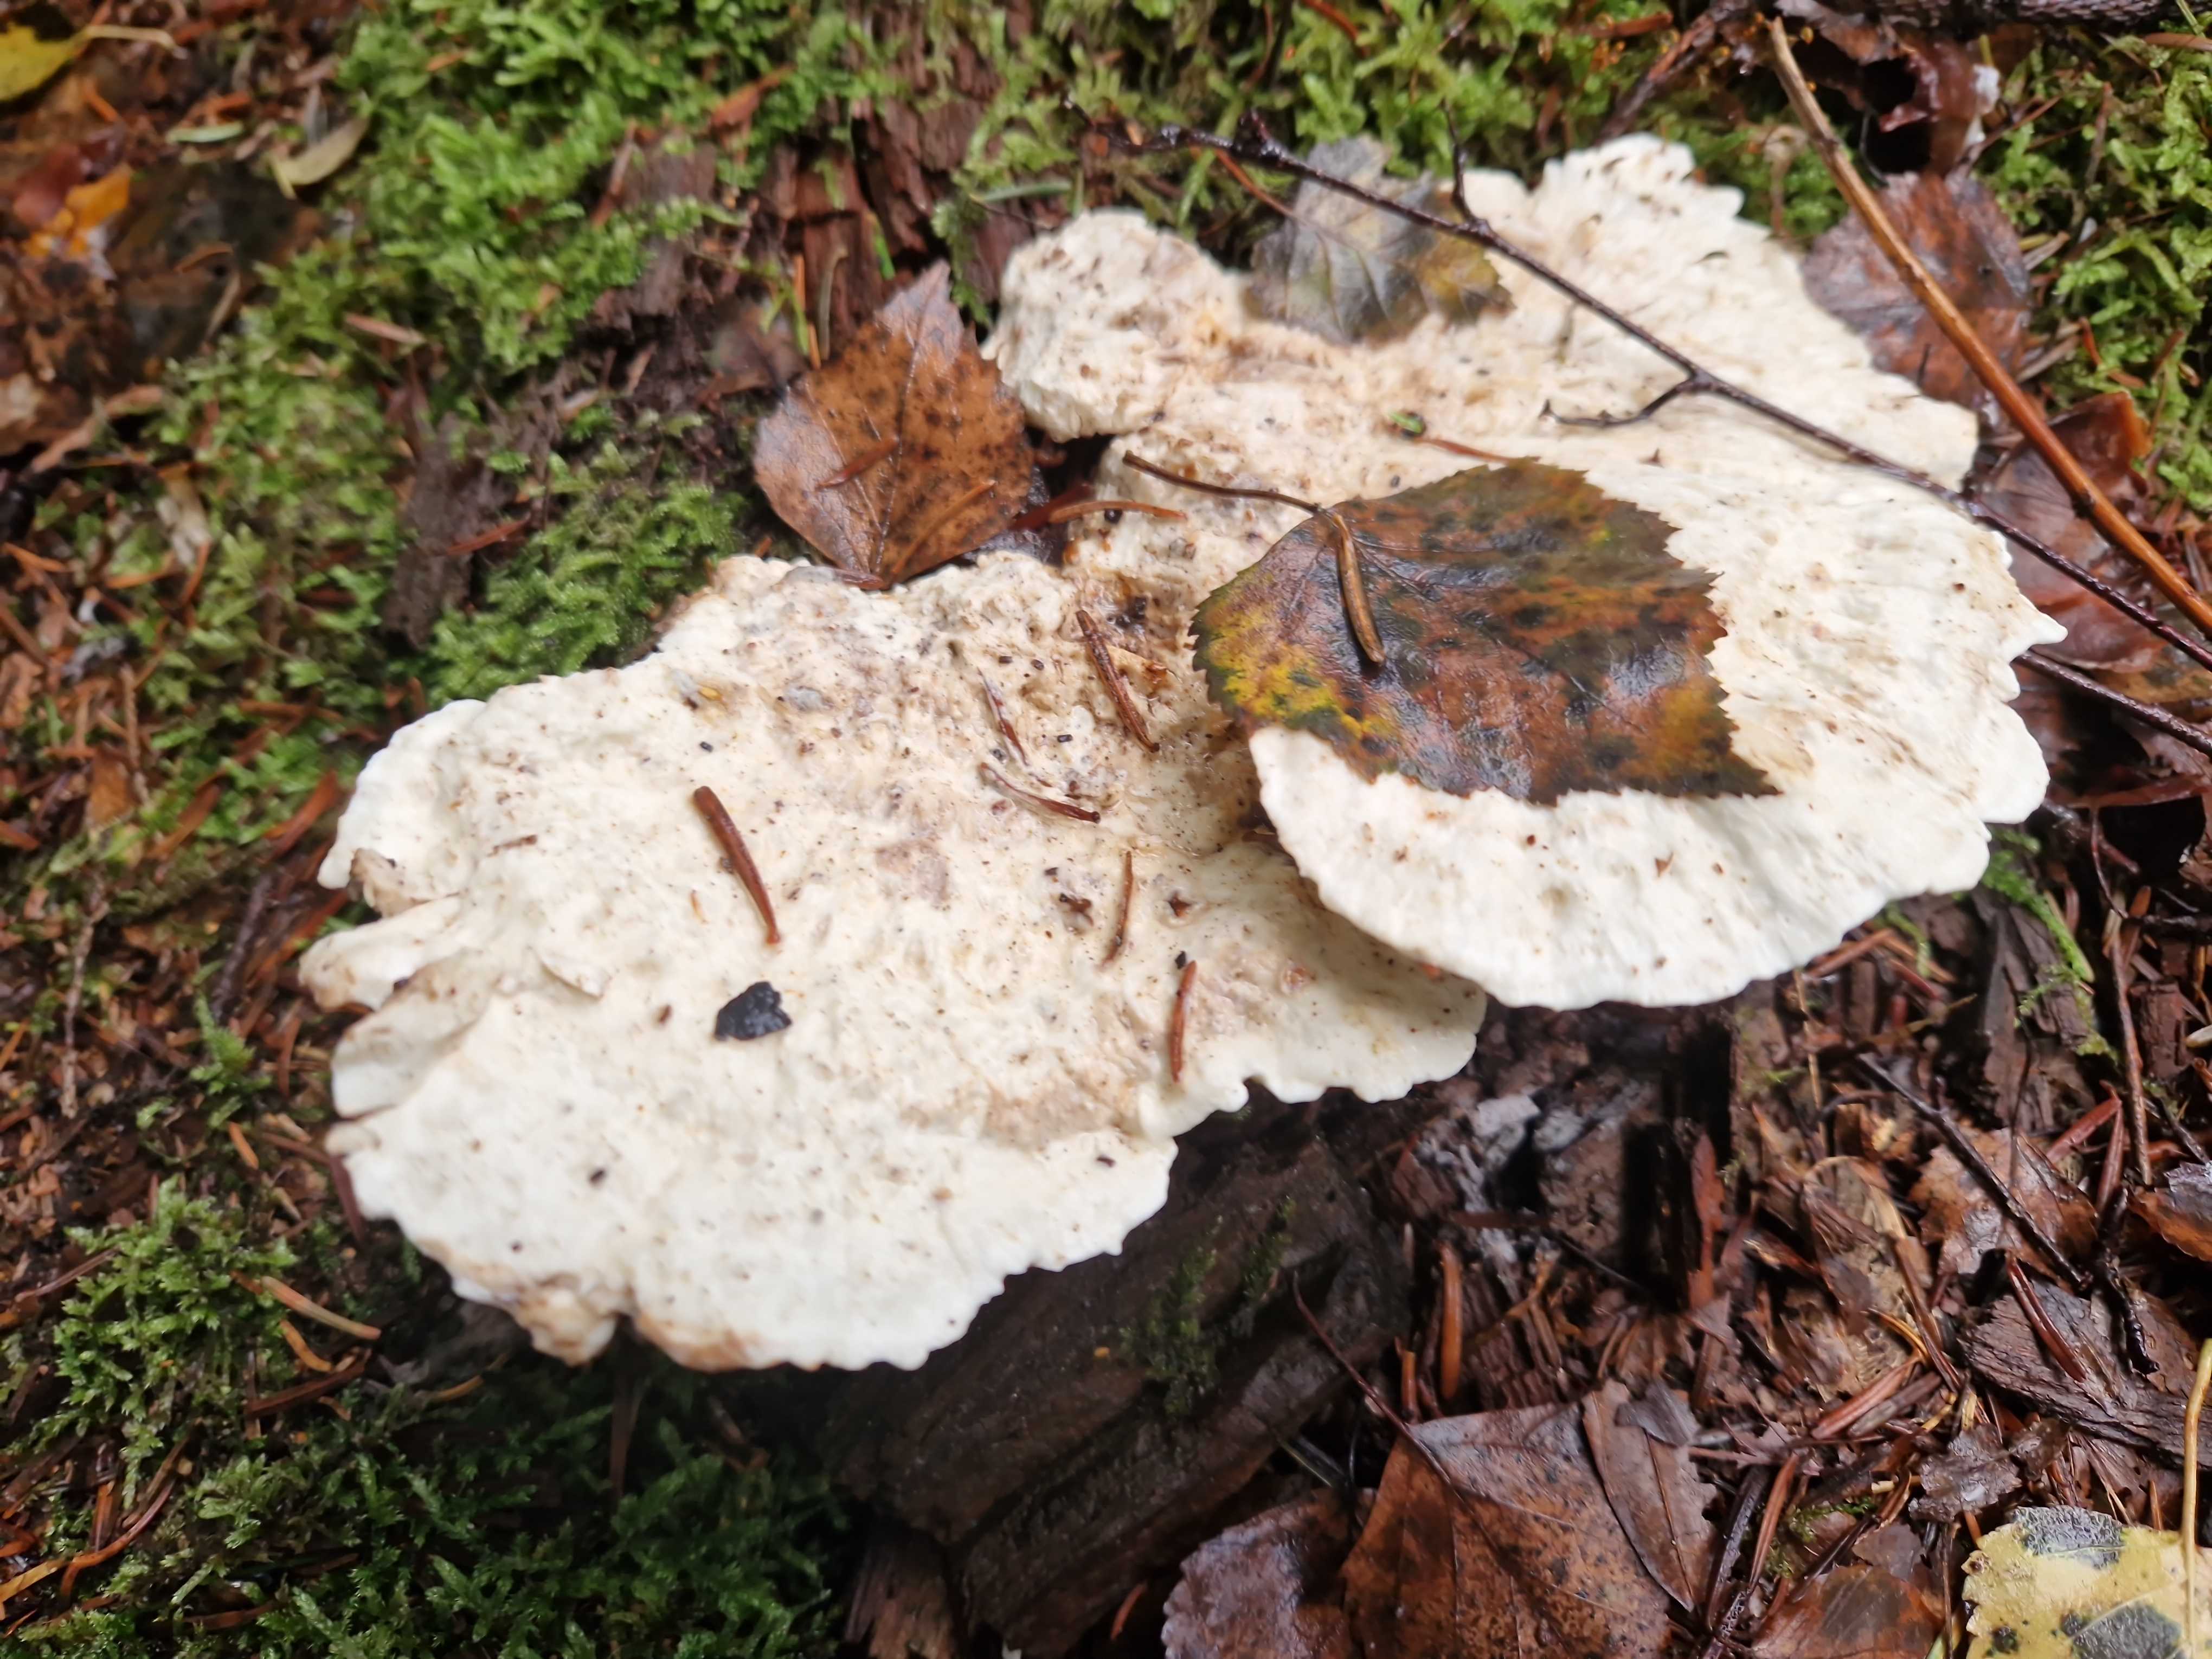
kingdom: Fungi
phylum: Basidiomycota
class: Agaricomycetes
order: Polyporales
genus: Calcipostia
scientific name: Calcipostia guttulata
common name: dråbe-kødporesvamp
